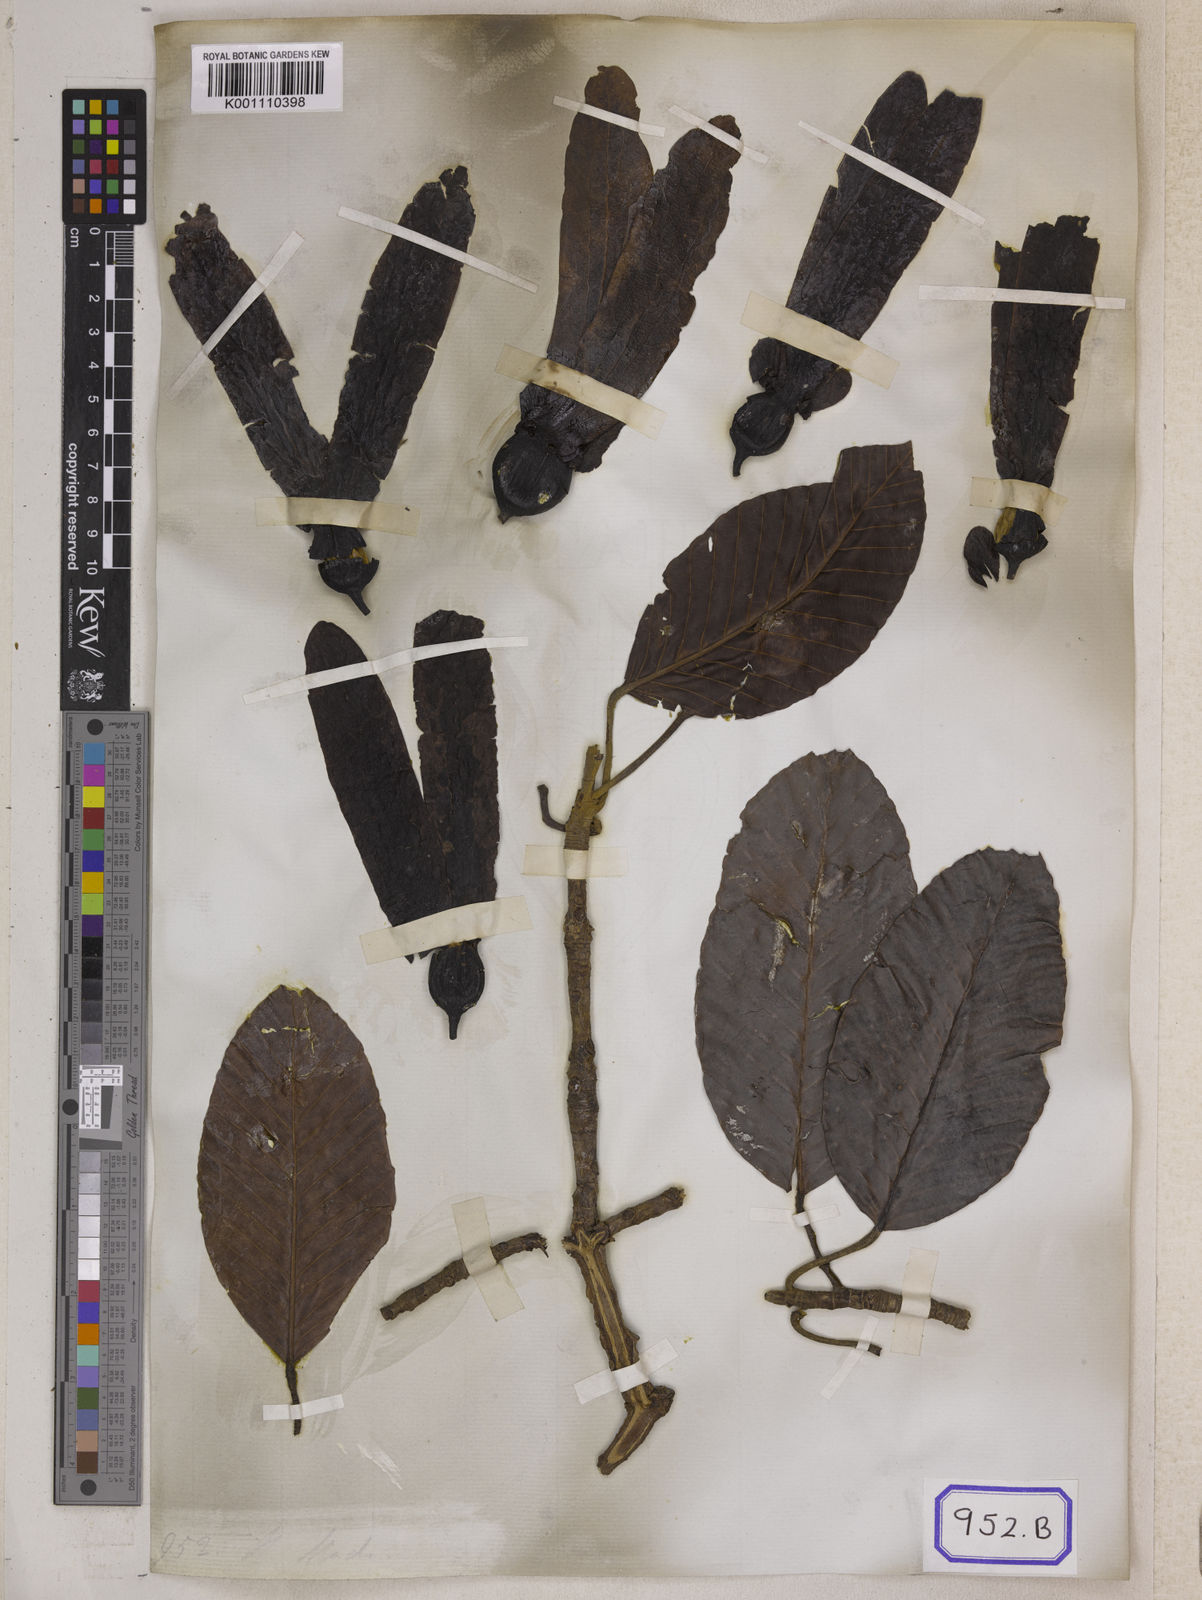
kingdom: Plantae
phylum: Tracheophyta
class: Magnoliopsida
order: Malvales
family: Dipterocarpaceae
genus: Dipterocarpus
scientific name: Dipterocarpus turbinatus
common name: East indian copaiba balsam
